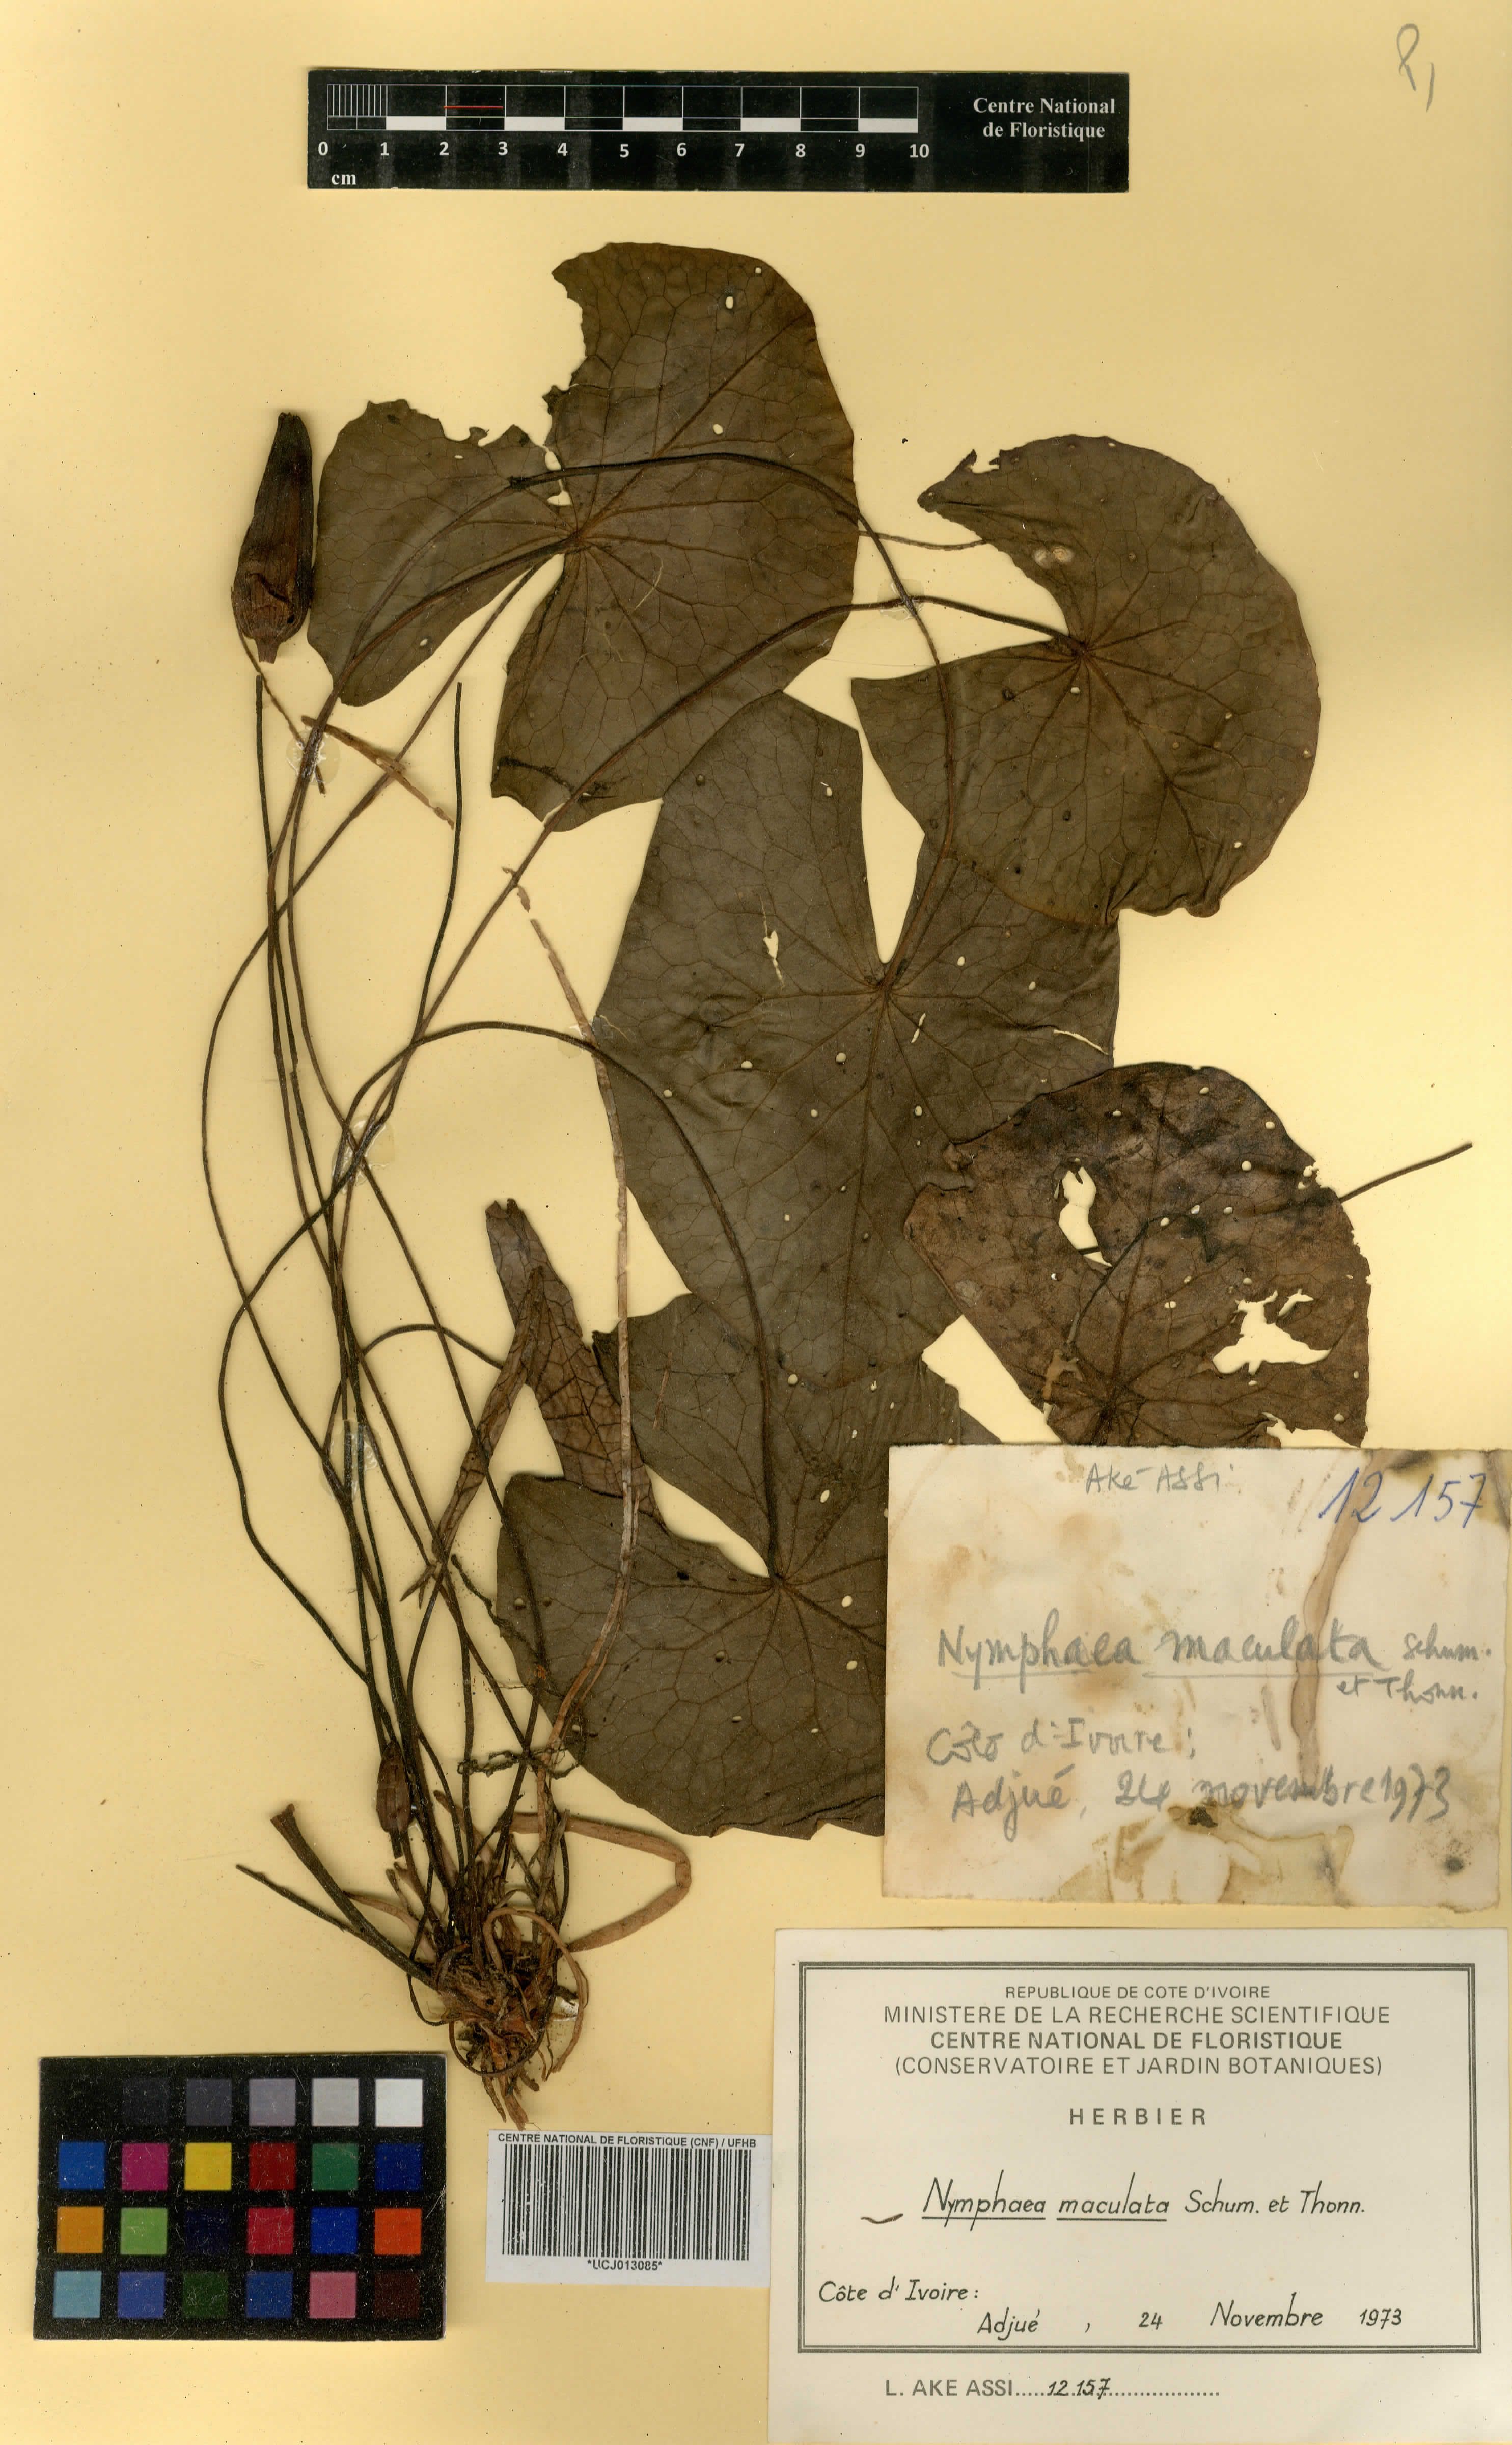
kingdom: Plantae
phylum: Tracheophyta
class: Magnoliopsida
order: Nymphaeales
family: Nymphaeaceae
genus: Nymphaea
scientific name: Nymphaea maculata
